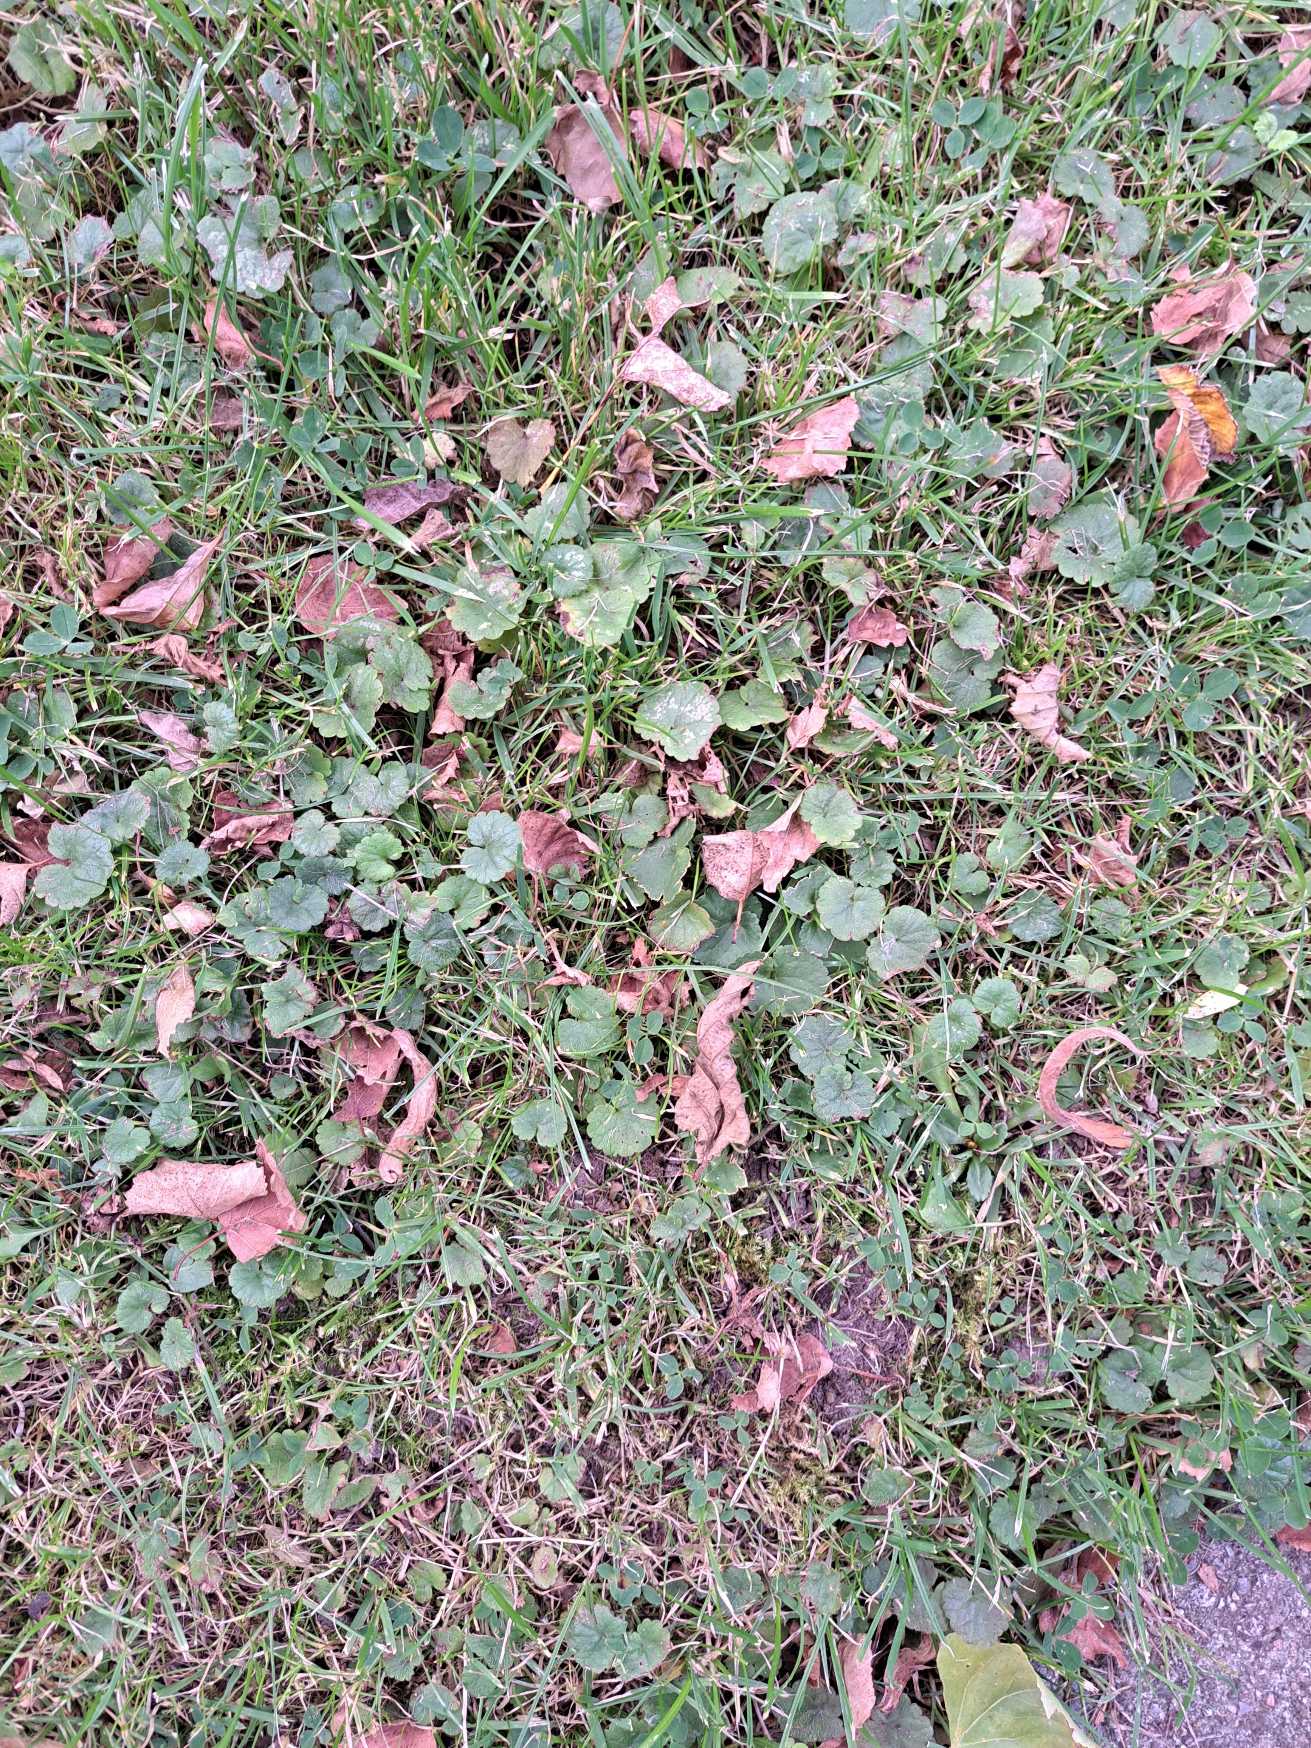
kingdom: Plantae
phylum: Tracheophyta
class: Magnoliopsida
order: Lamiales
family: Lamiaceae
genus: Glechoma
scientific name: Glechoma hederacea
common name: Korsknap
